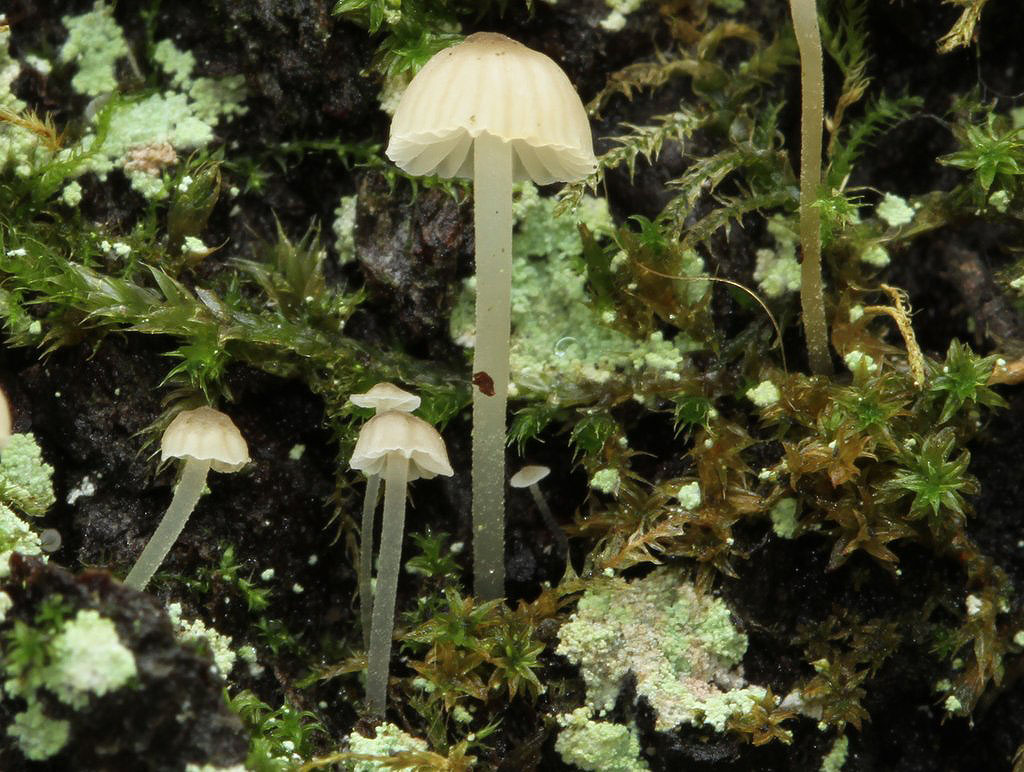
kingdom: Fungi
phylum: Basidiomycota
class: Agaricomycetes
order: Agaricales
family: Porotheleaceae
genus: Phloeomana
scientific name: Phloeomana speirea
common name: kvist-huesvamp
